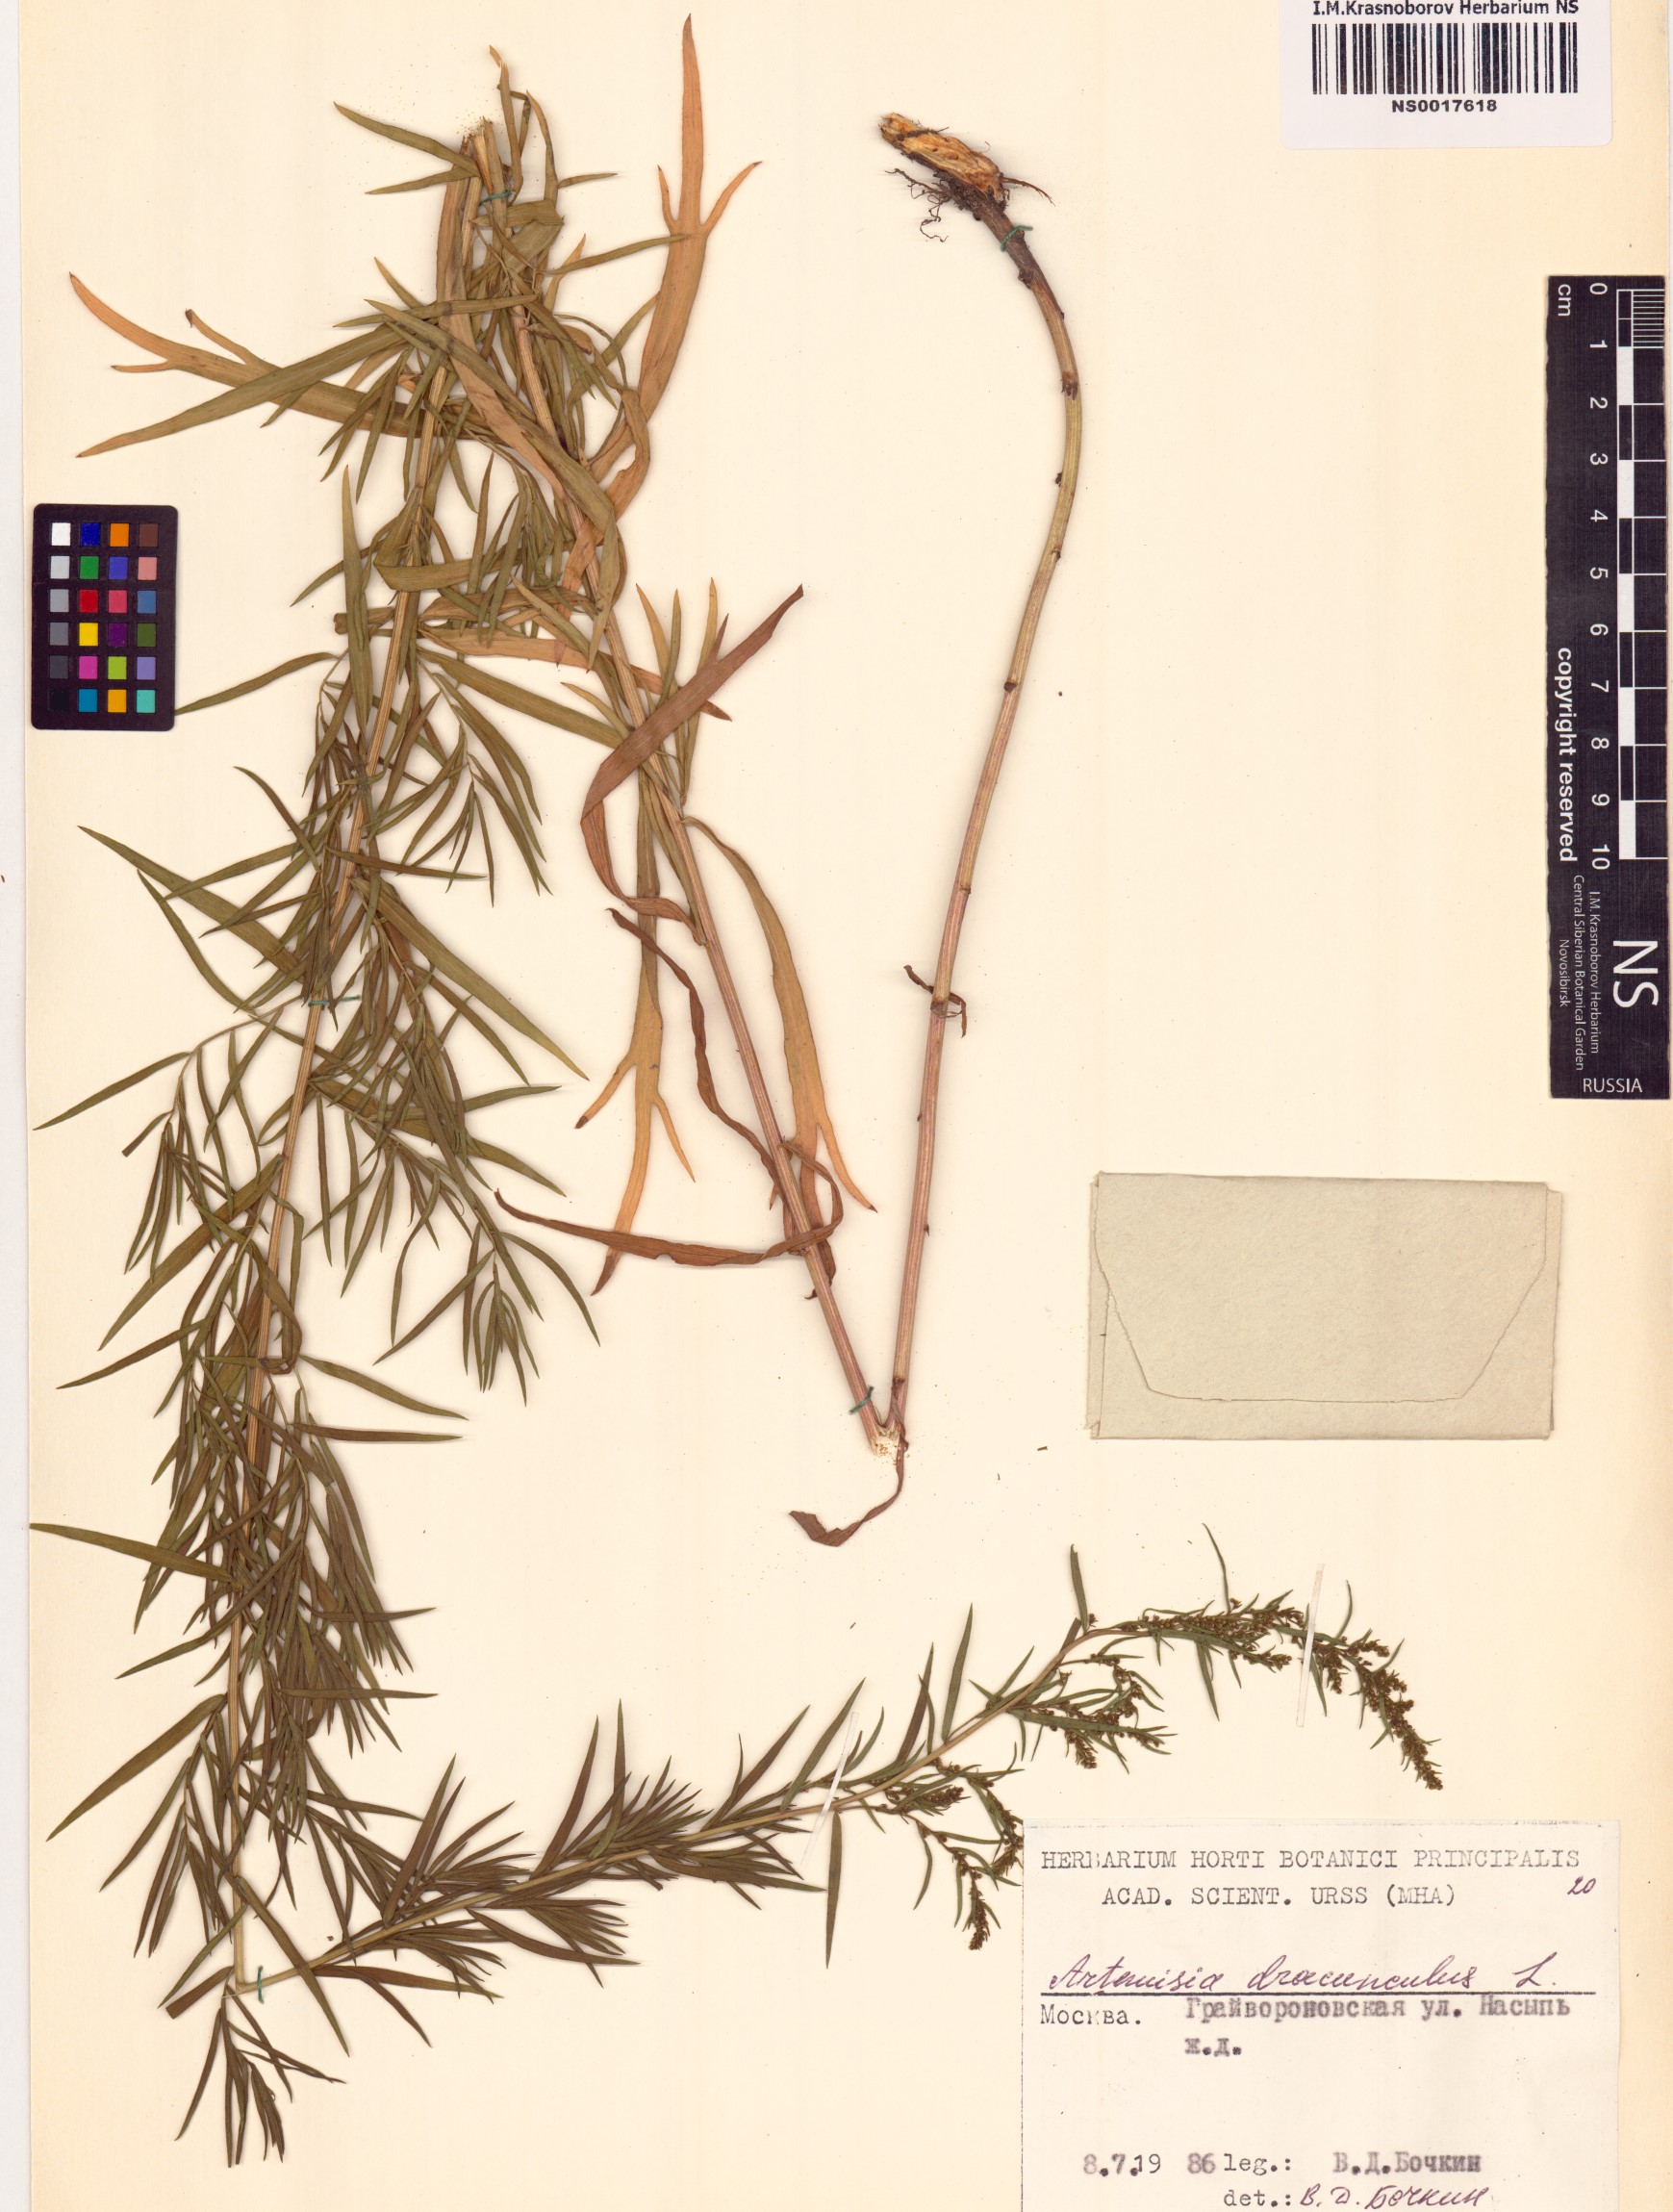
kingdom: Plantae
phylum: Tracheophyta
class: Magnoliopsida
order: Asterales
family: Asteraceae
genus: Artemisia
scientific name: Artemisia dracunculus
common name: Tarragon
